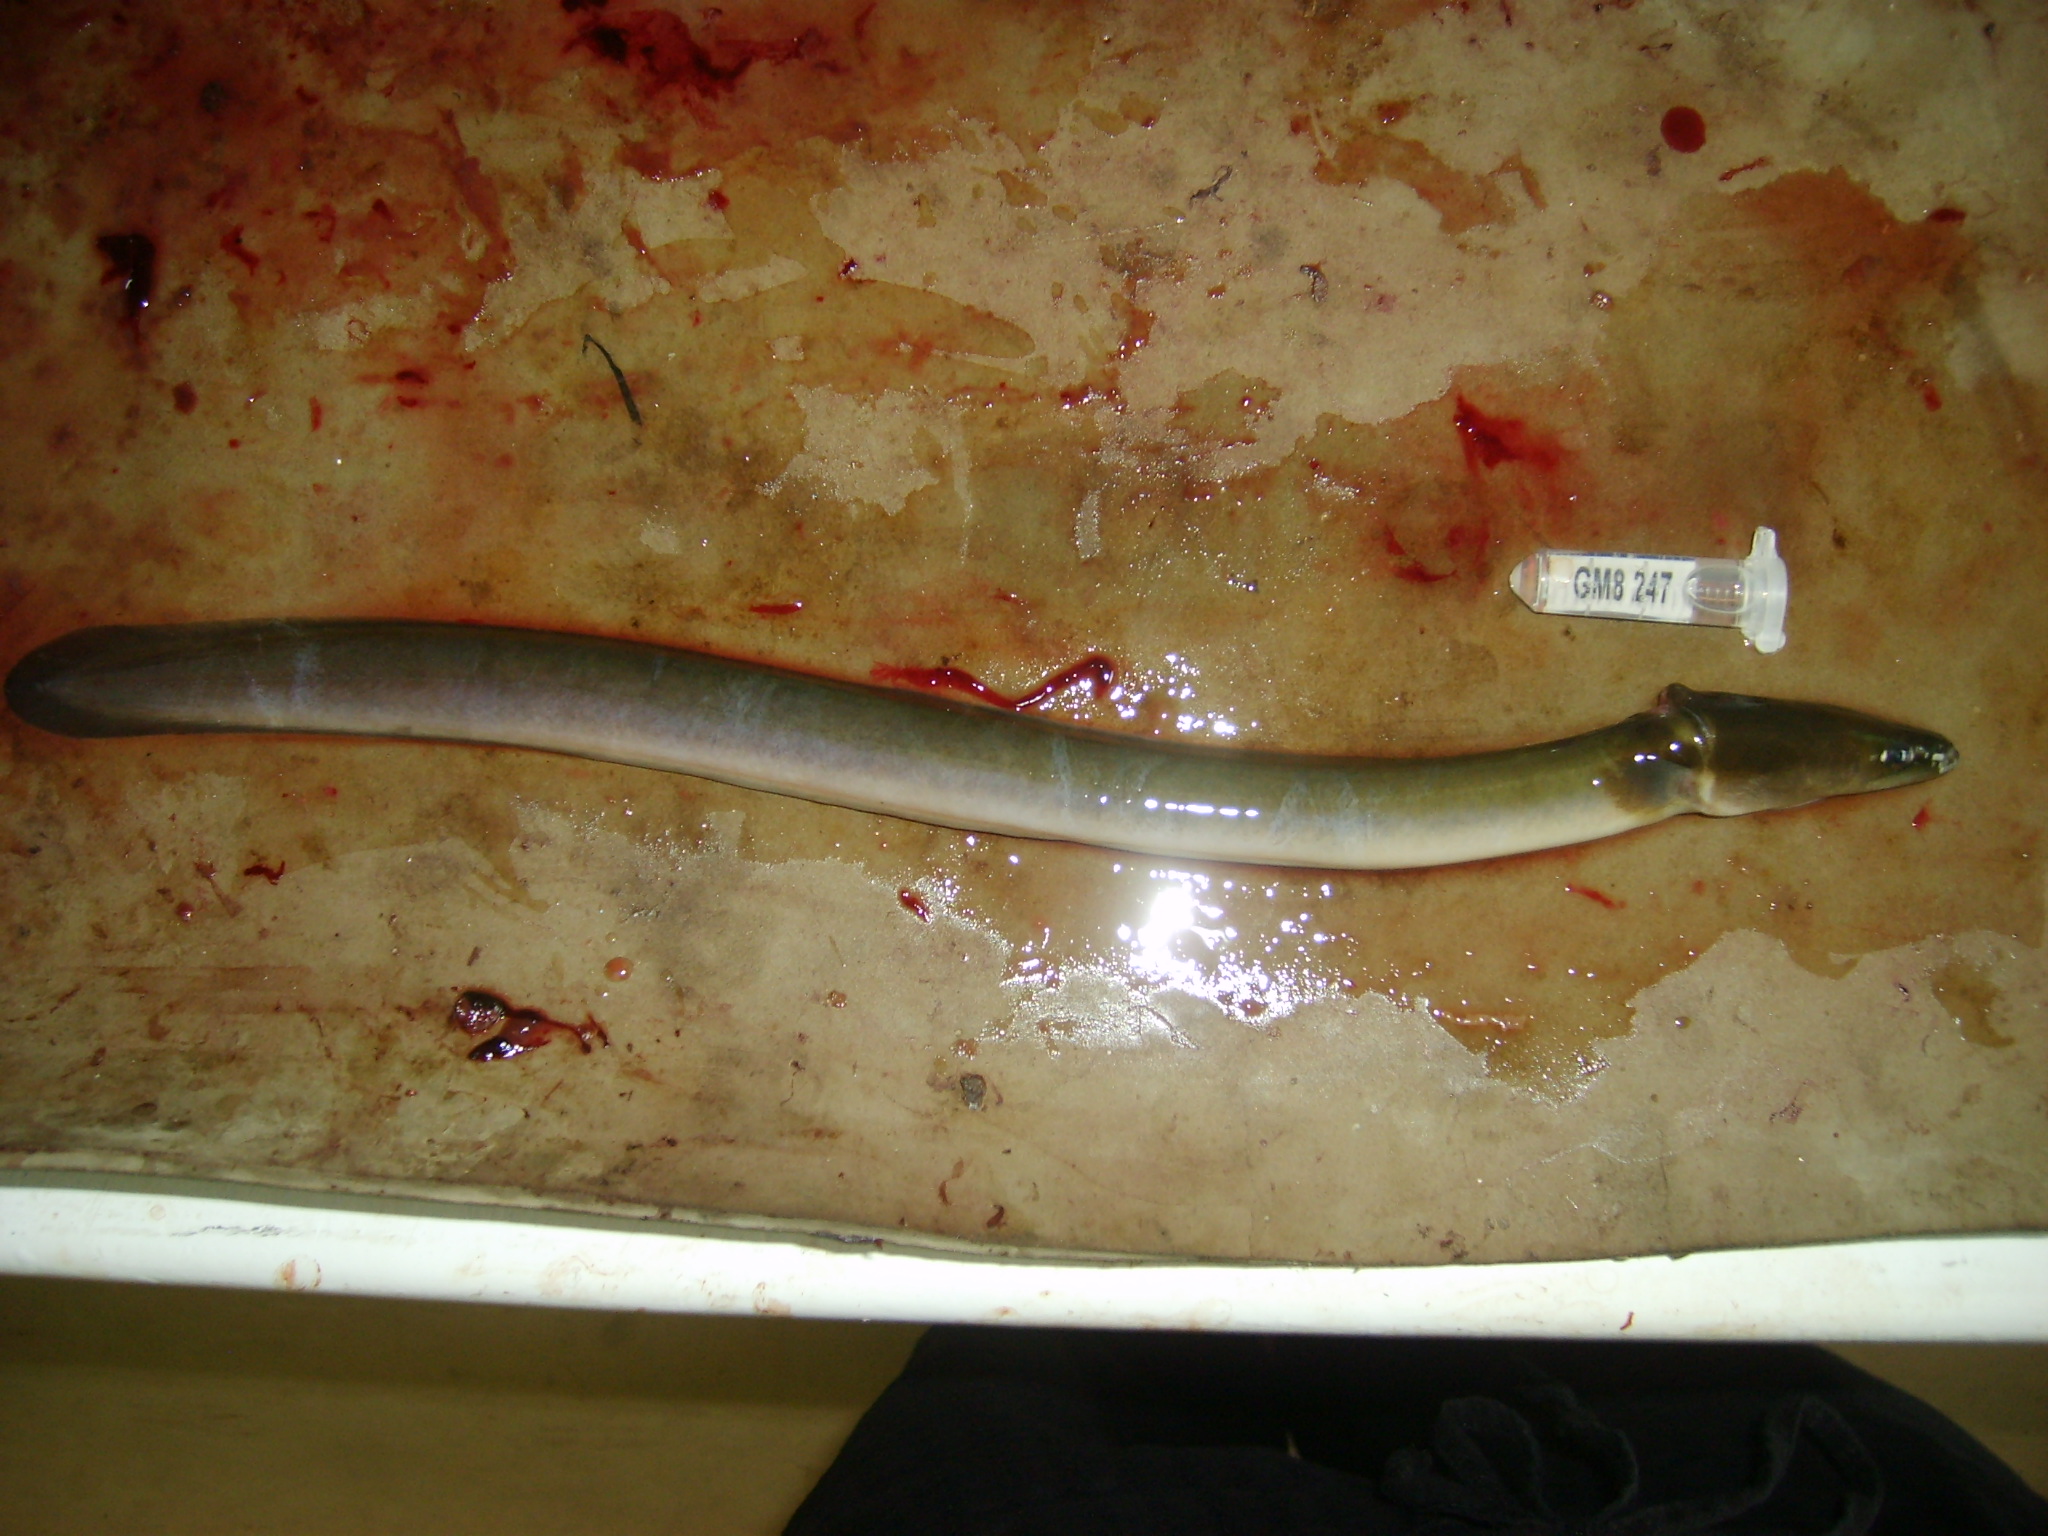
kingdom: Animalia
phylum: Chordata
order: Anguilliformes
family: Anguillidae
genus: Anguilla
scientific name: Anguilla mossambica
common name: African longfin eel
